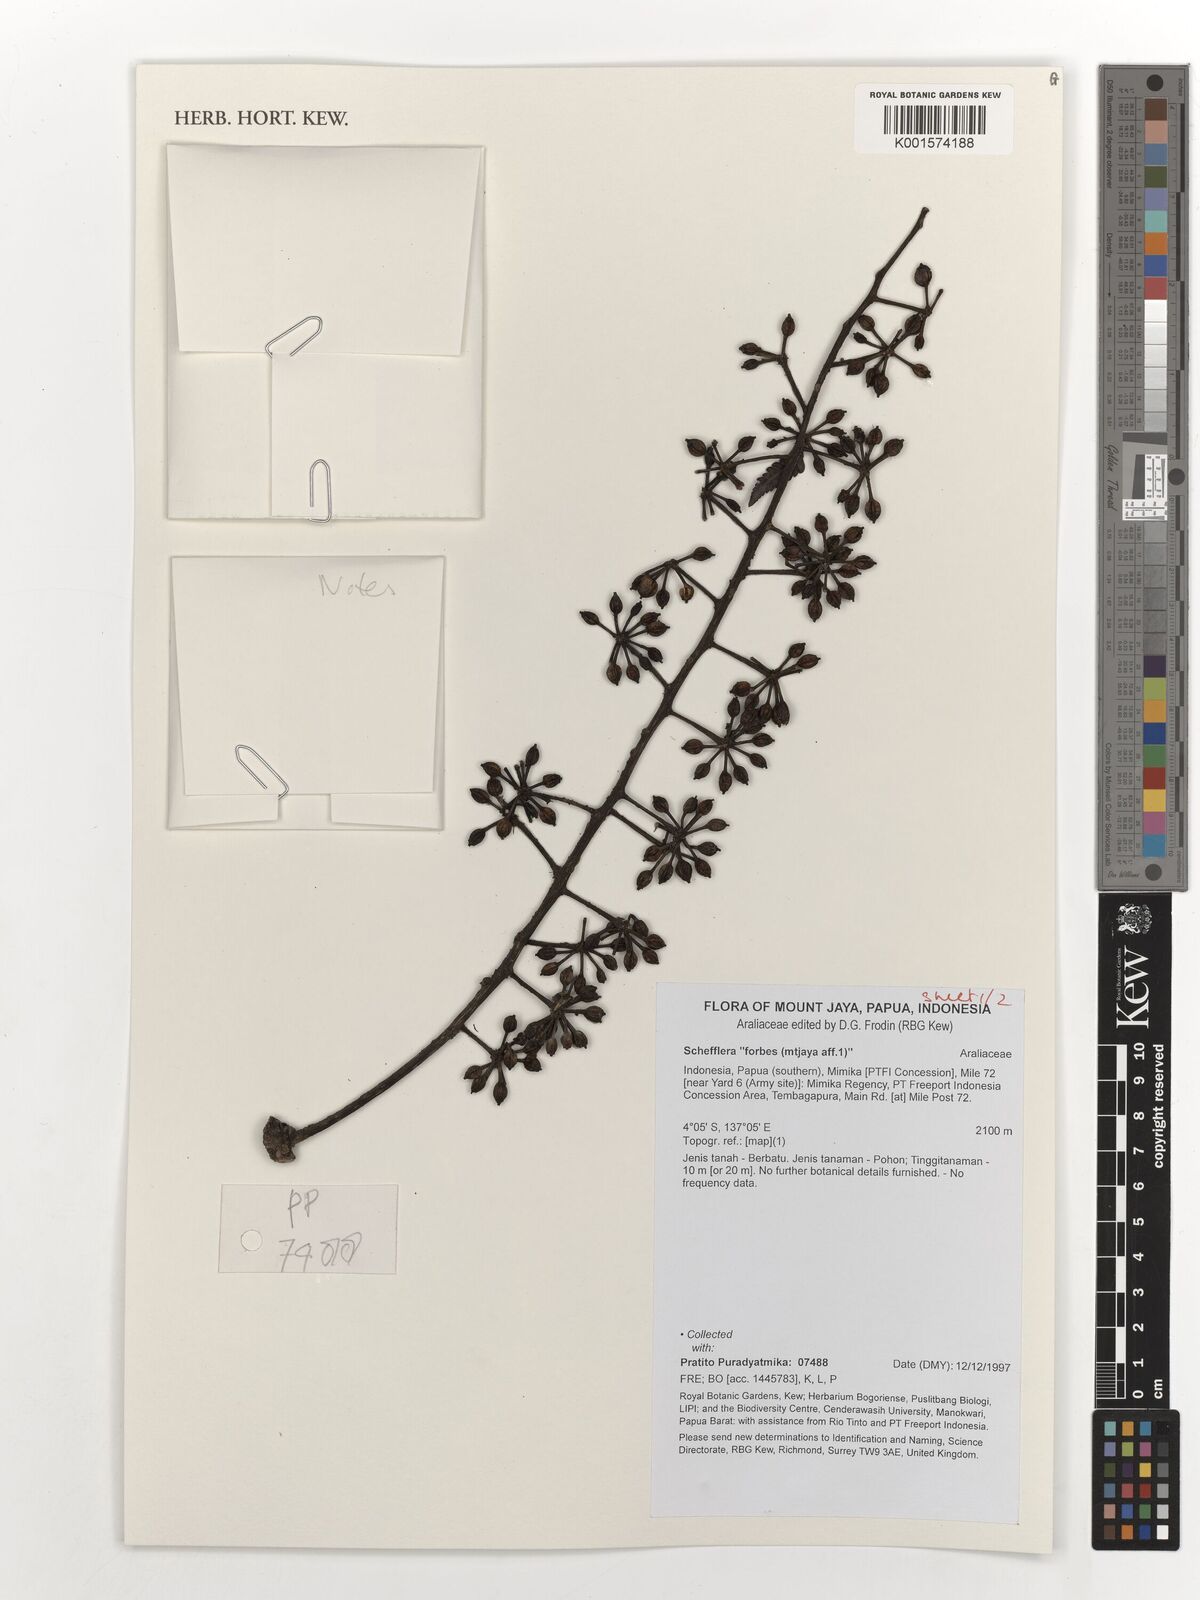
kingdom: Plantae
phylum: Tracheophyta
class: Magnoliopsida
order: Apiales
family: Araliaceae
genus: Schefflera
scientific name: Schefflera
